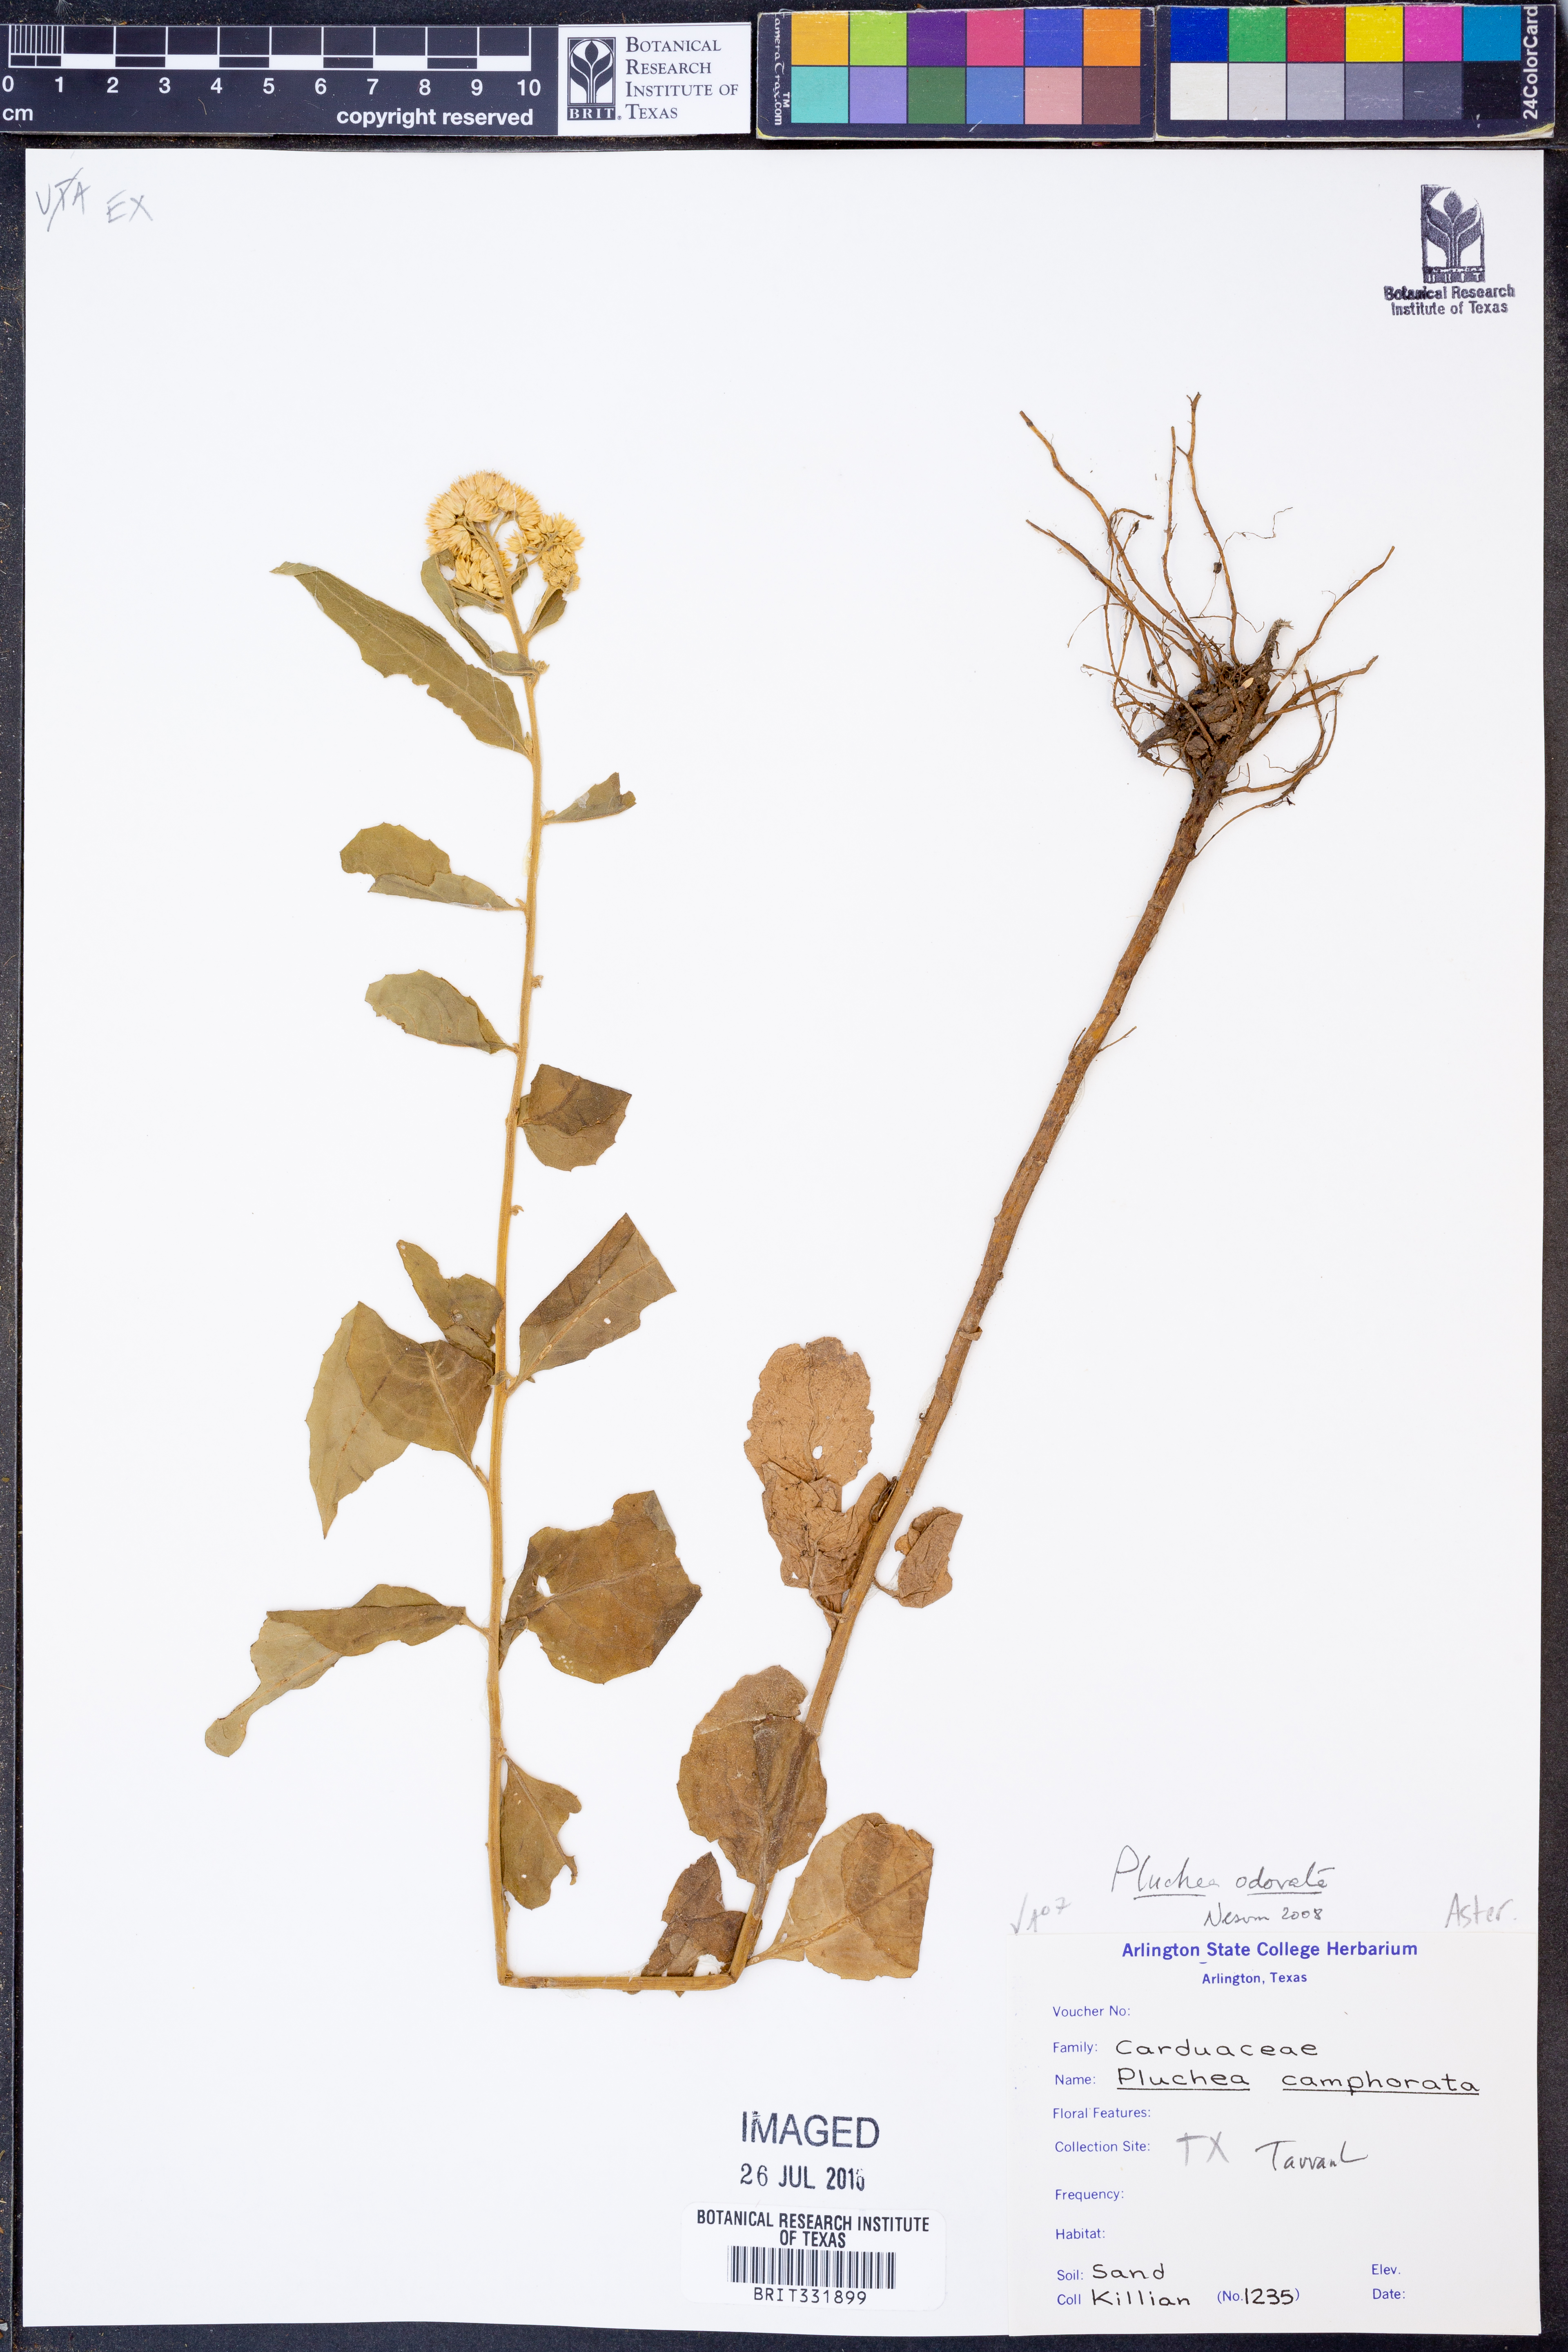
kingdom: Plantae
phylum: Tracheophyta
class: Magnoliopsida
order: Asterales
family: Asteraceae
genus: Pluchea
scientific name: Pluchea odorata
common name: Saltmarsh fleabane
